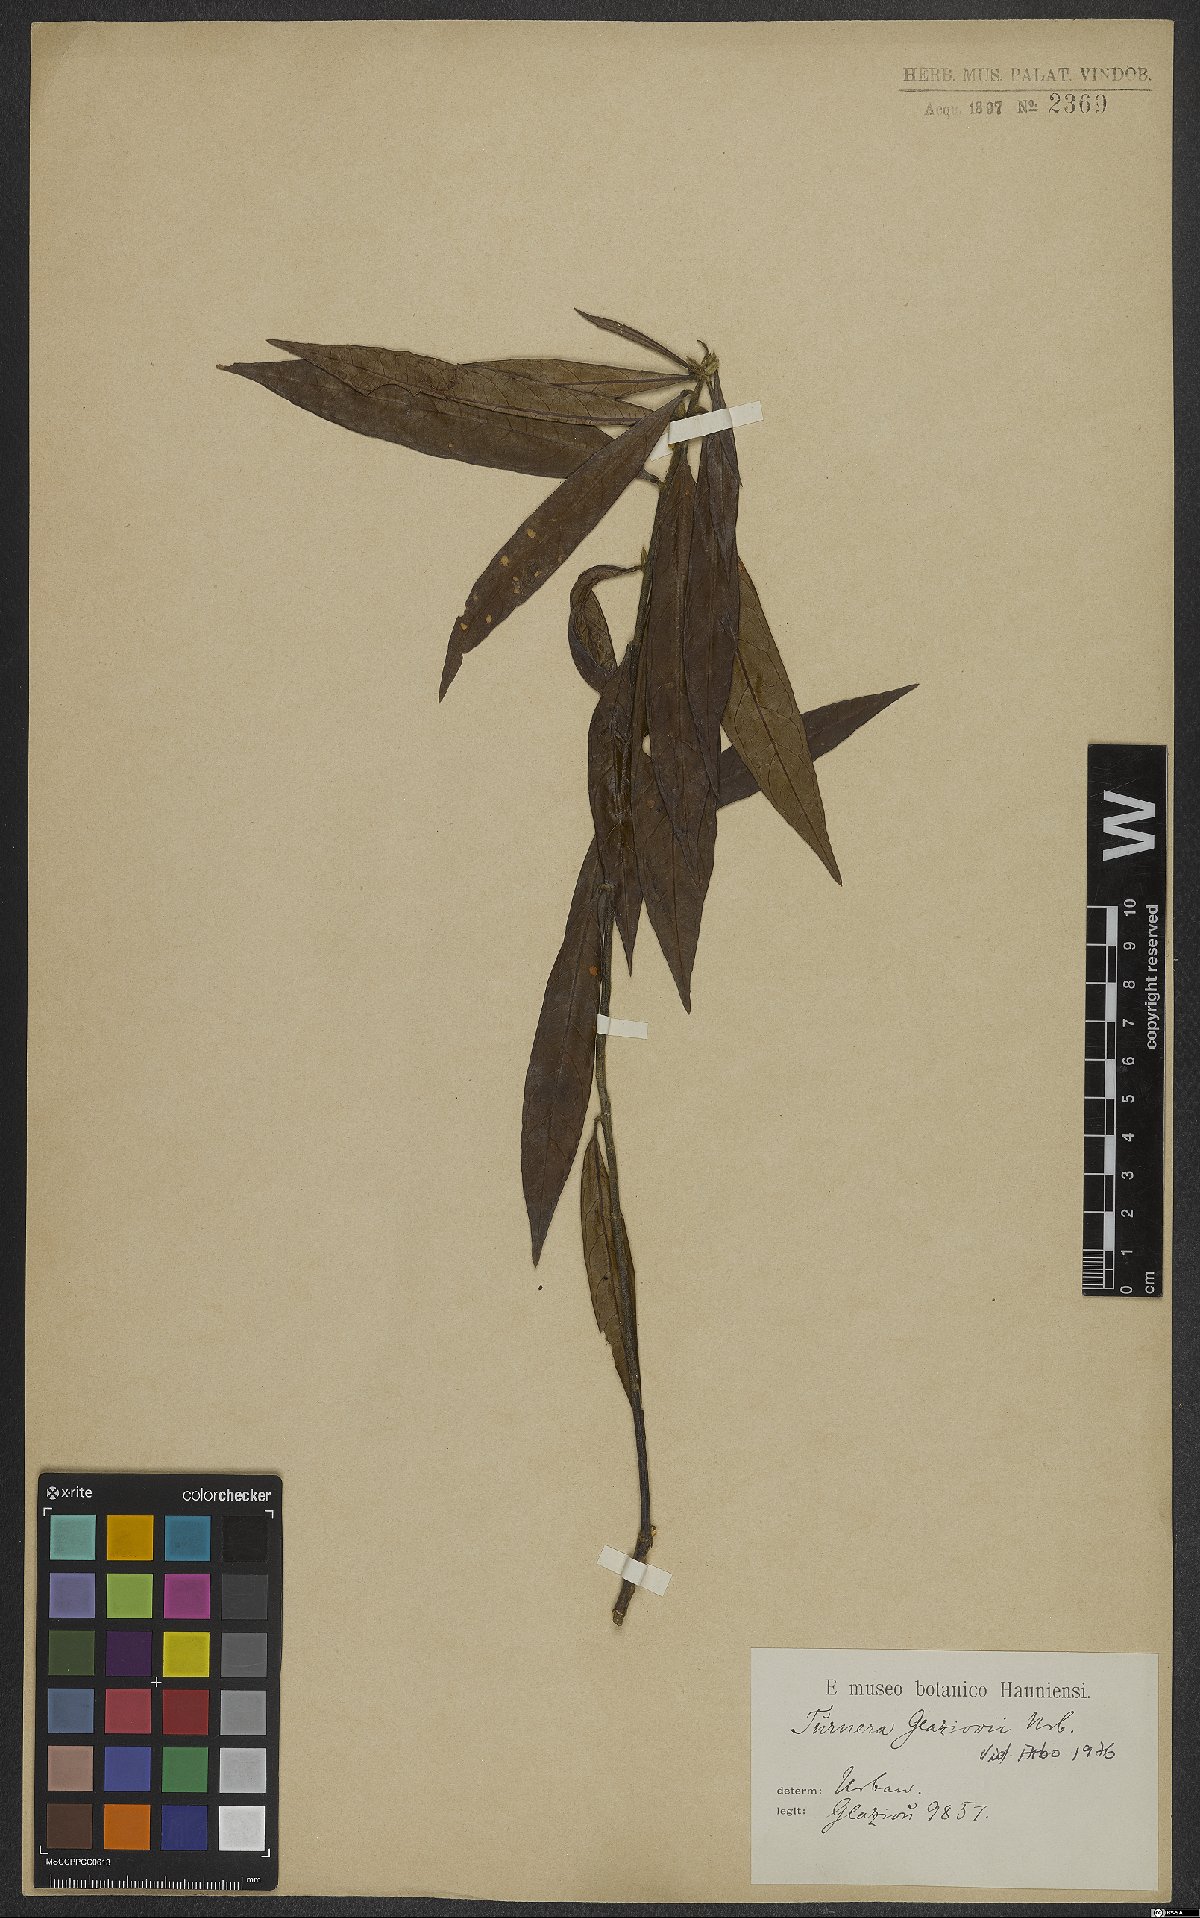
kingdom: Plantae
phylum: Tracheophyta
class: Magnoliopsida
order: Malpighiales
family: Turneraceae
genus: Turnera
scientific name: Turnera glaziovii
